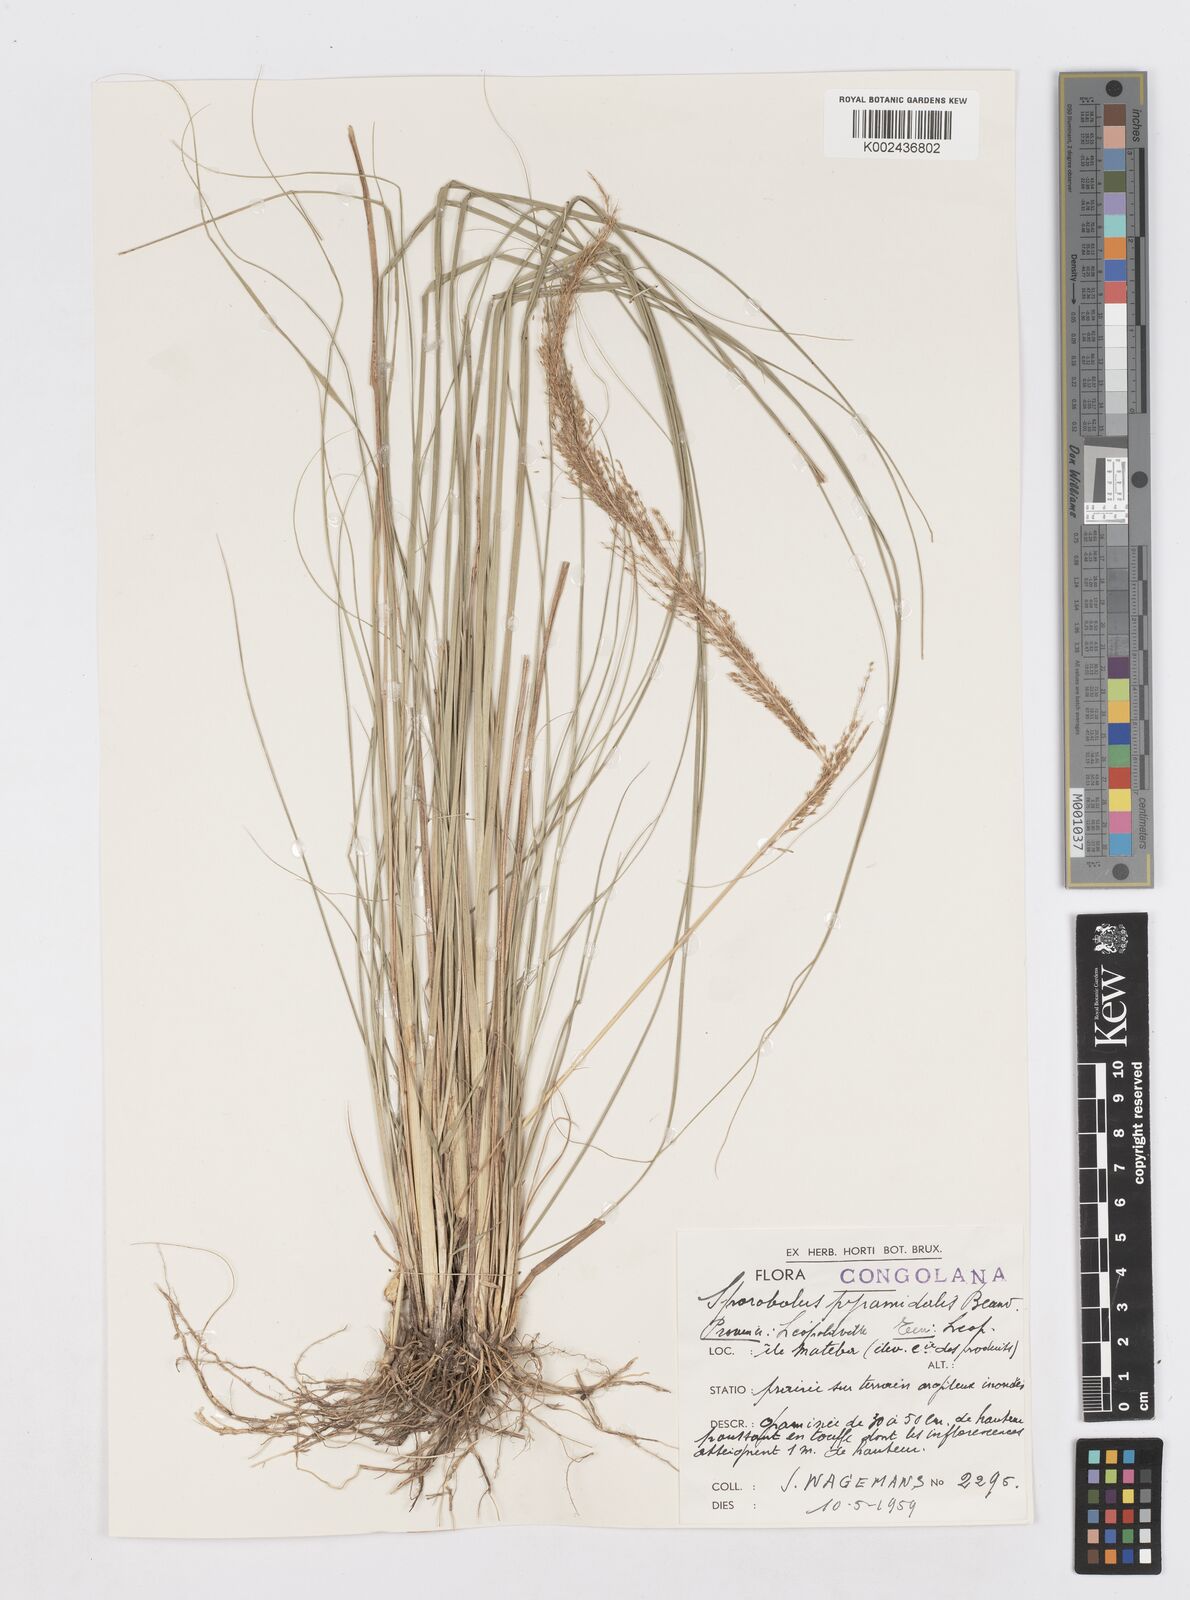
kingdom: Plantae
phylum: Tracheophyta
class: Liliopsida
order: Poales
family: Poaceae
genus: Sporobolus
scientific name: Sporobolus pyramidalis
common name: West indian dropseed
